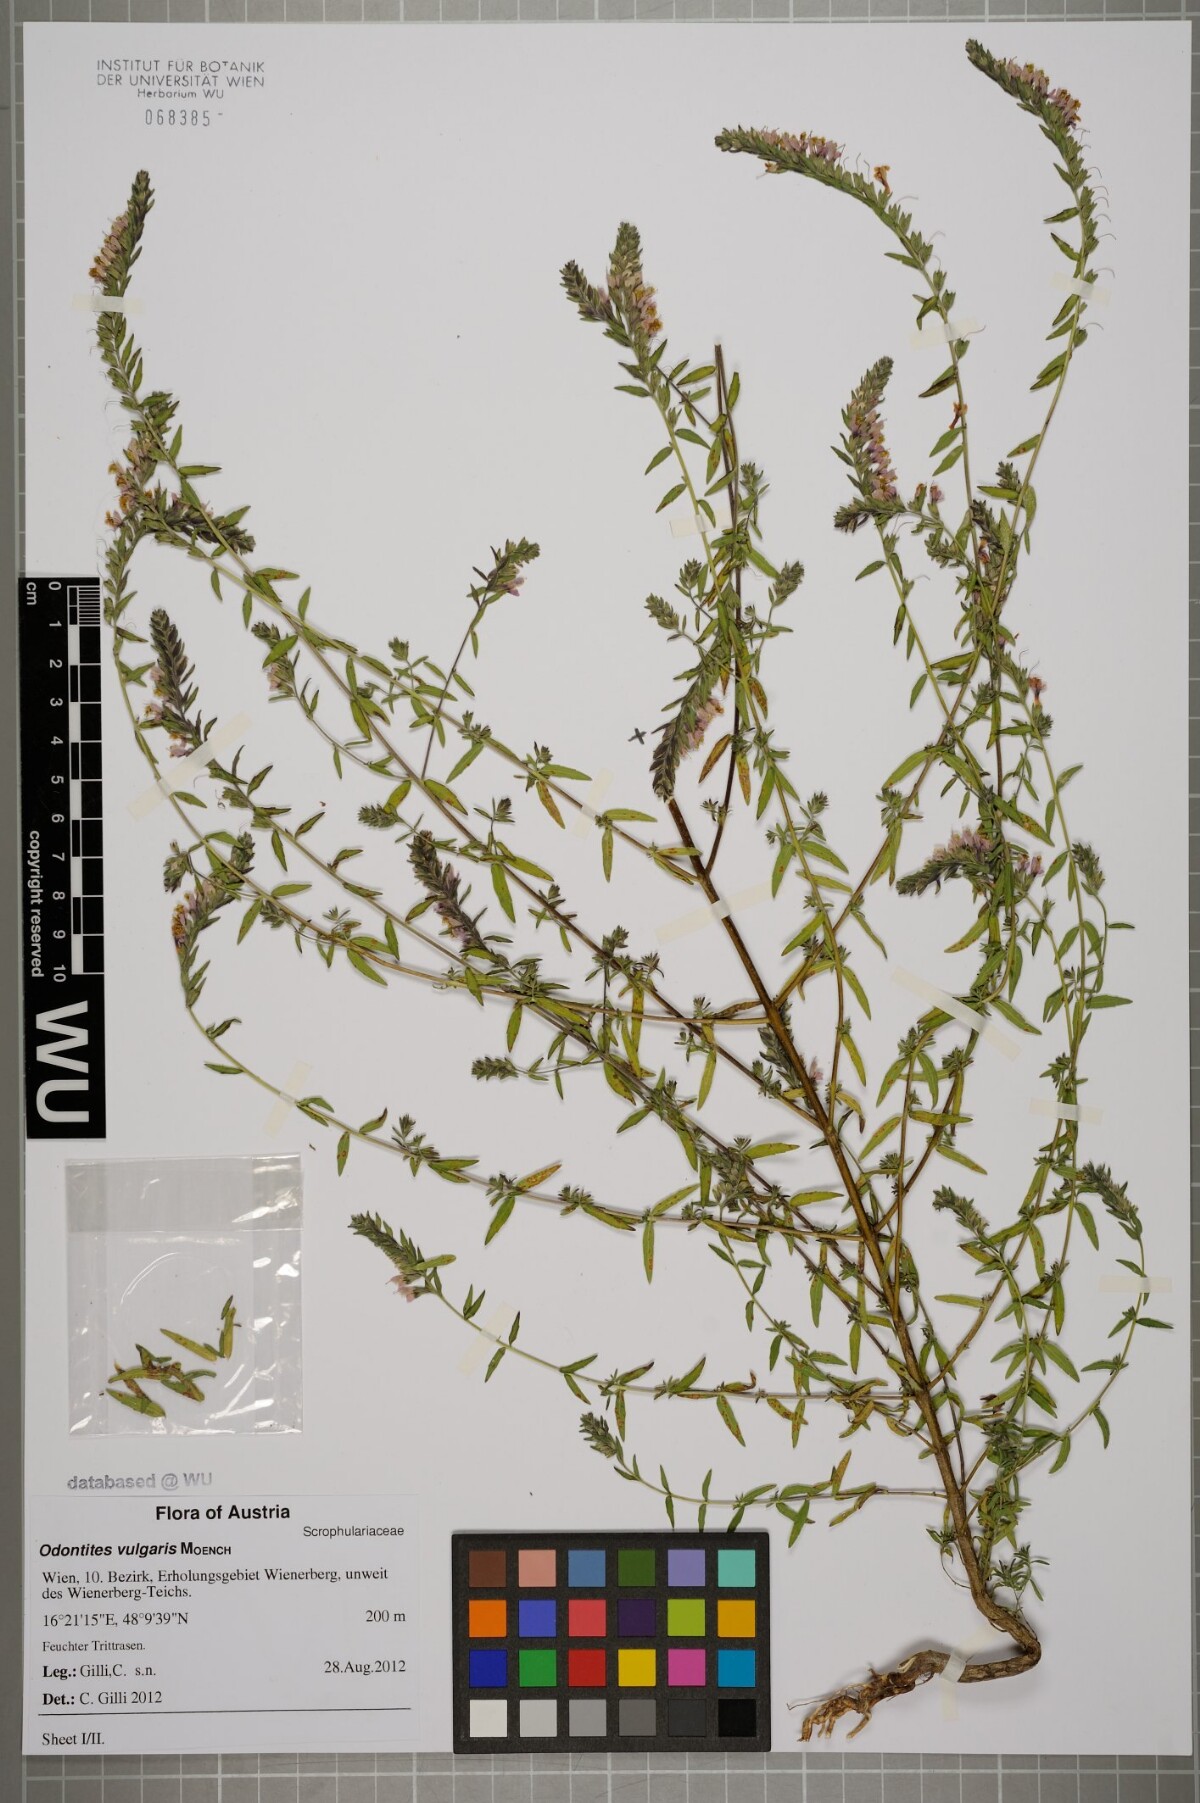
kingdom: Plantae
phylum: Tracheophyta
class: Magnoliopsida
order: Lamiales
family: Orobanchaceae
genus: Odontites
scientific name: Odontites vulgaris
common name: Broomrape
